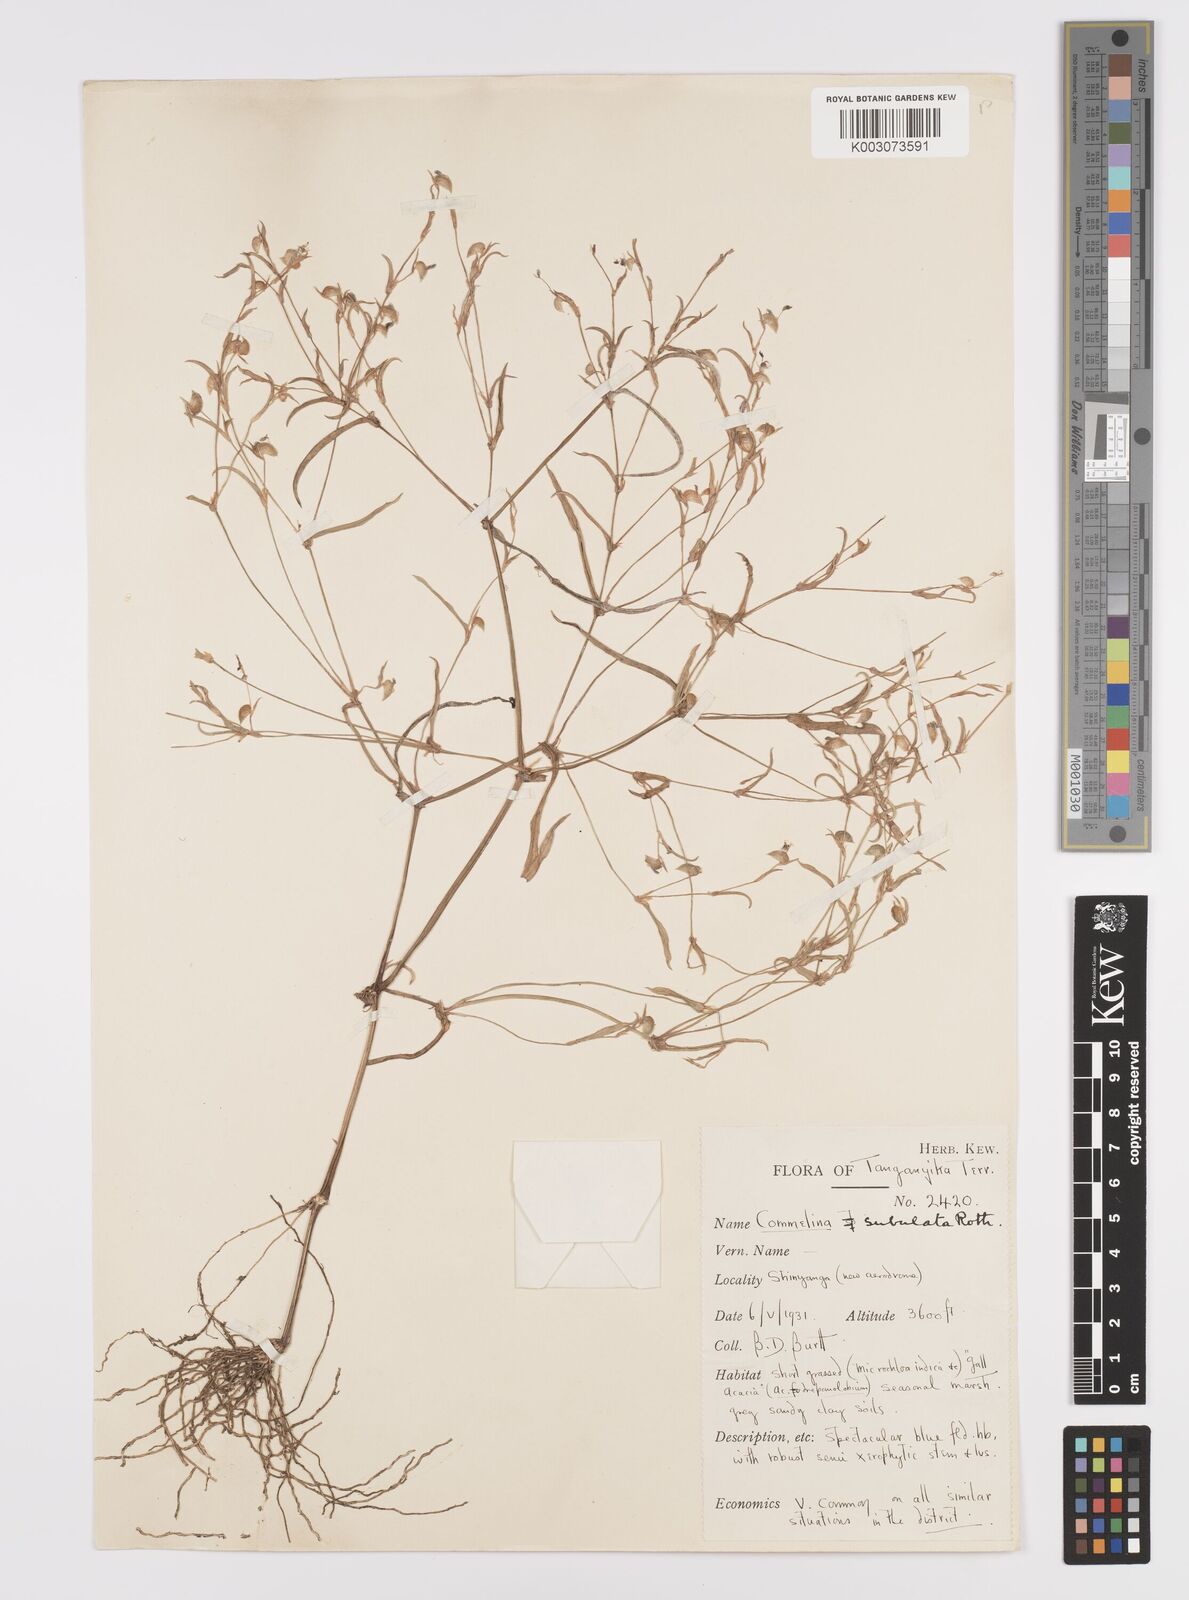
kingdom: Plantae
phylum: Tracheophyta
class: Liliopsida
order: Commelinales
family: Commelinaceae
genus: Commelina
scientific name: Commelina subulata
